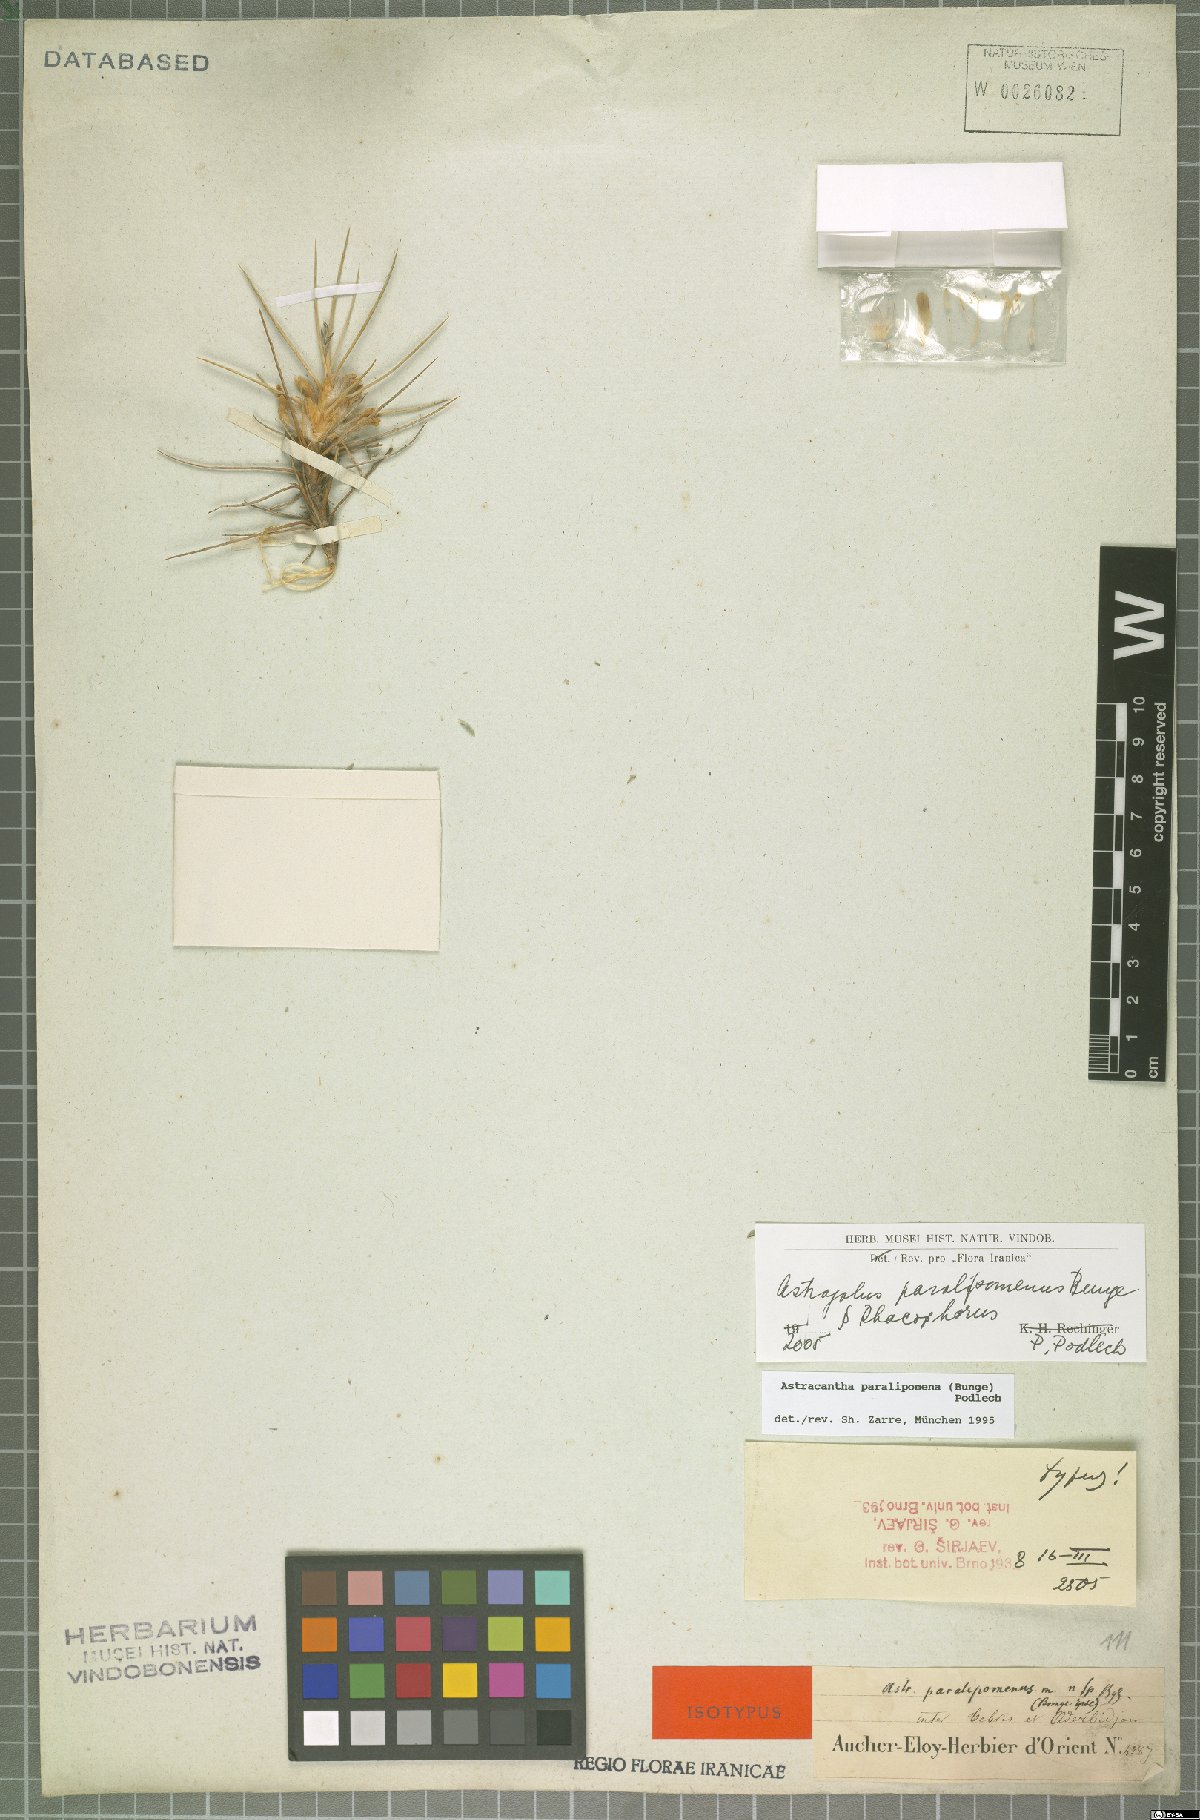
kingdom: Plantae
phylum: Tracheophyta
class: Magnoliopsida
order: Fabales
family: Fabaceae
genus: Astragalus
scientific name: Astragalus paralipomenus
